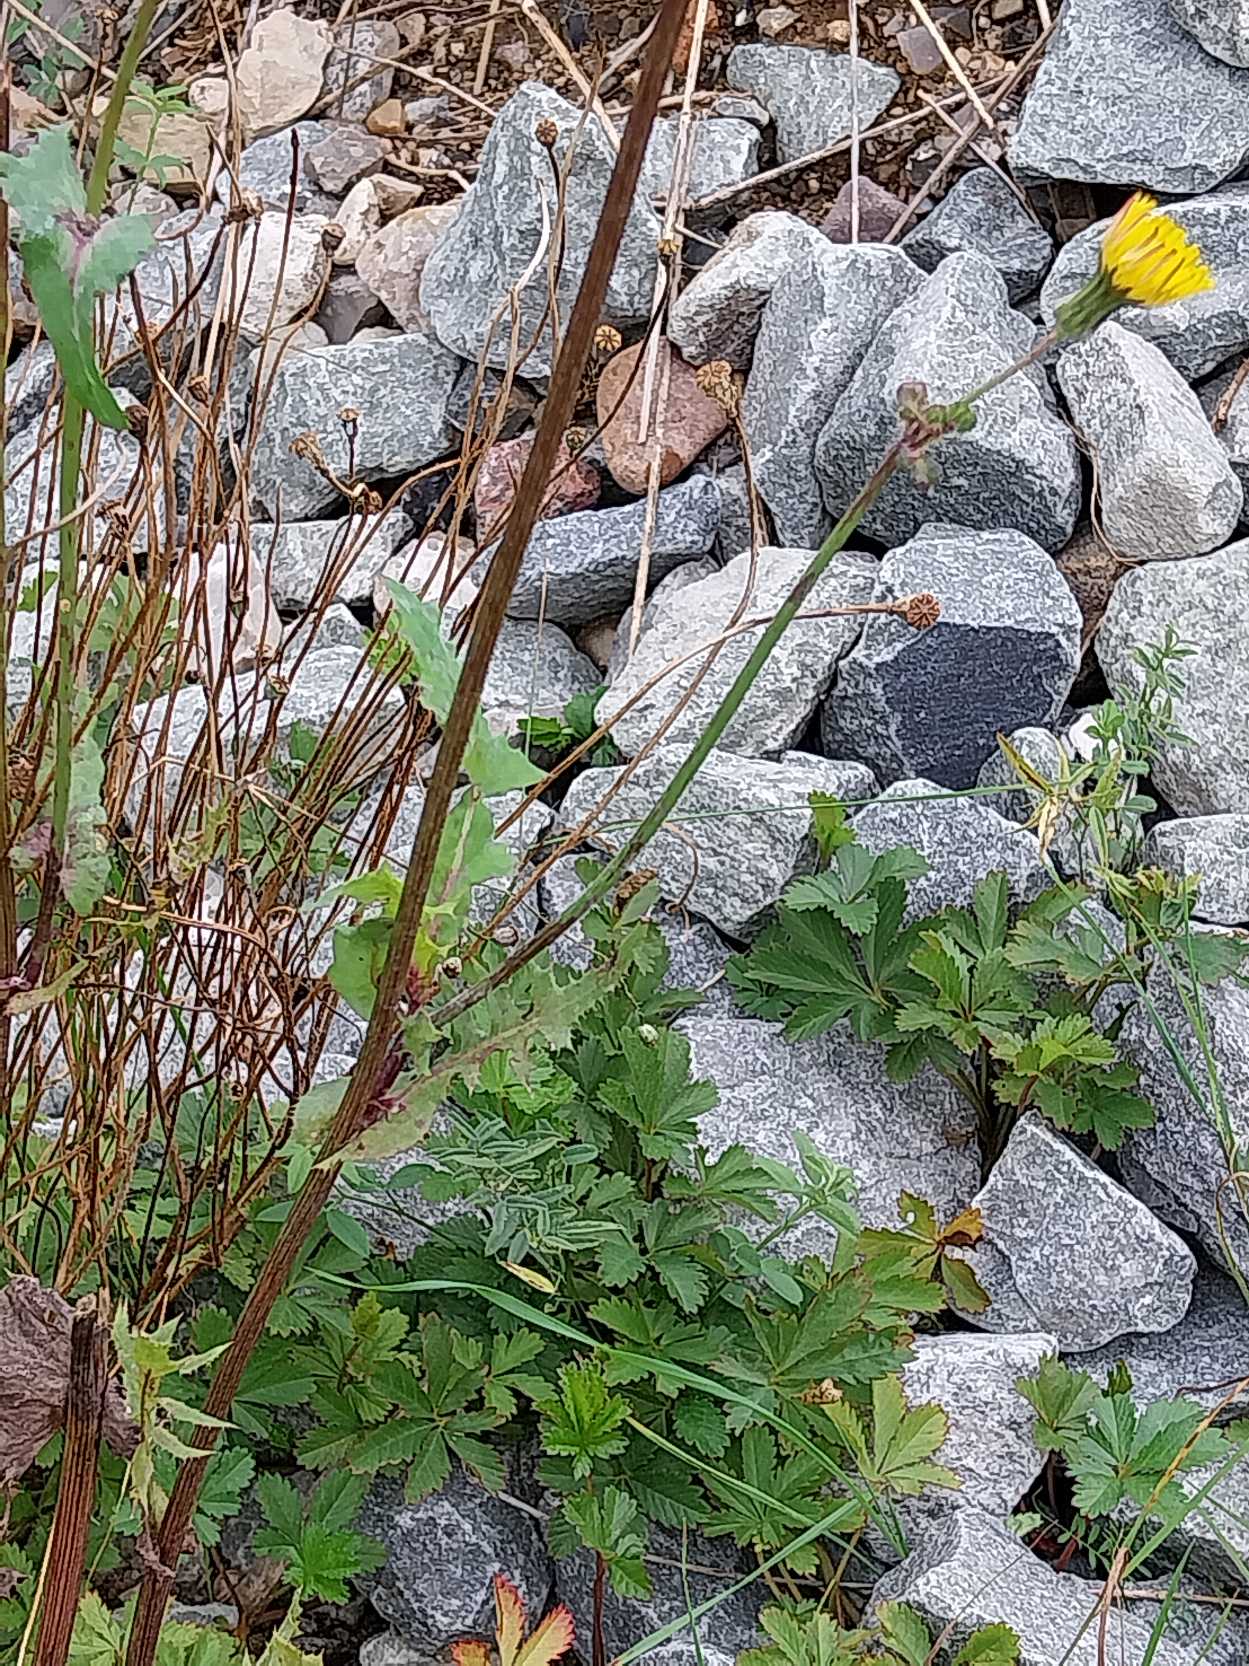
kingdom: Plantae
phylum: Tracheophyta
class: Magnoliopsida
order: Asterales
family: Asteraceae
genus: Sonchus
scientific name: Sonchus oleraceus
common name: Almindelig svinemælk
